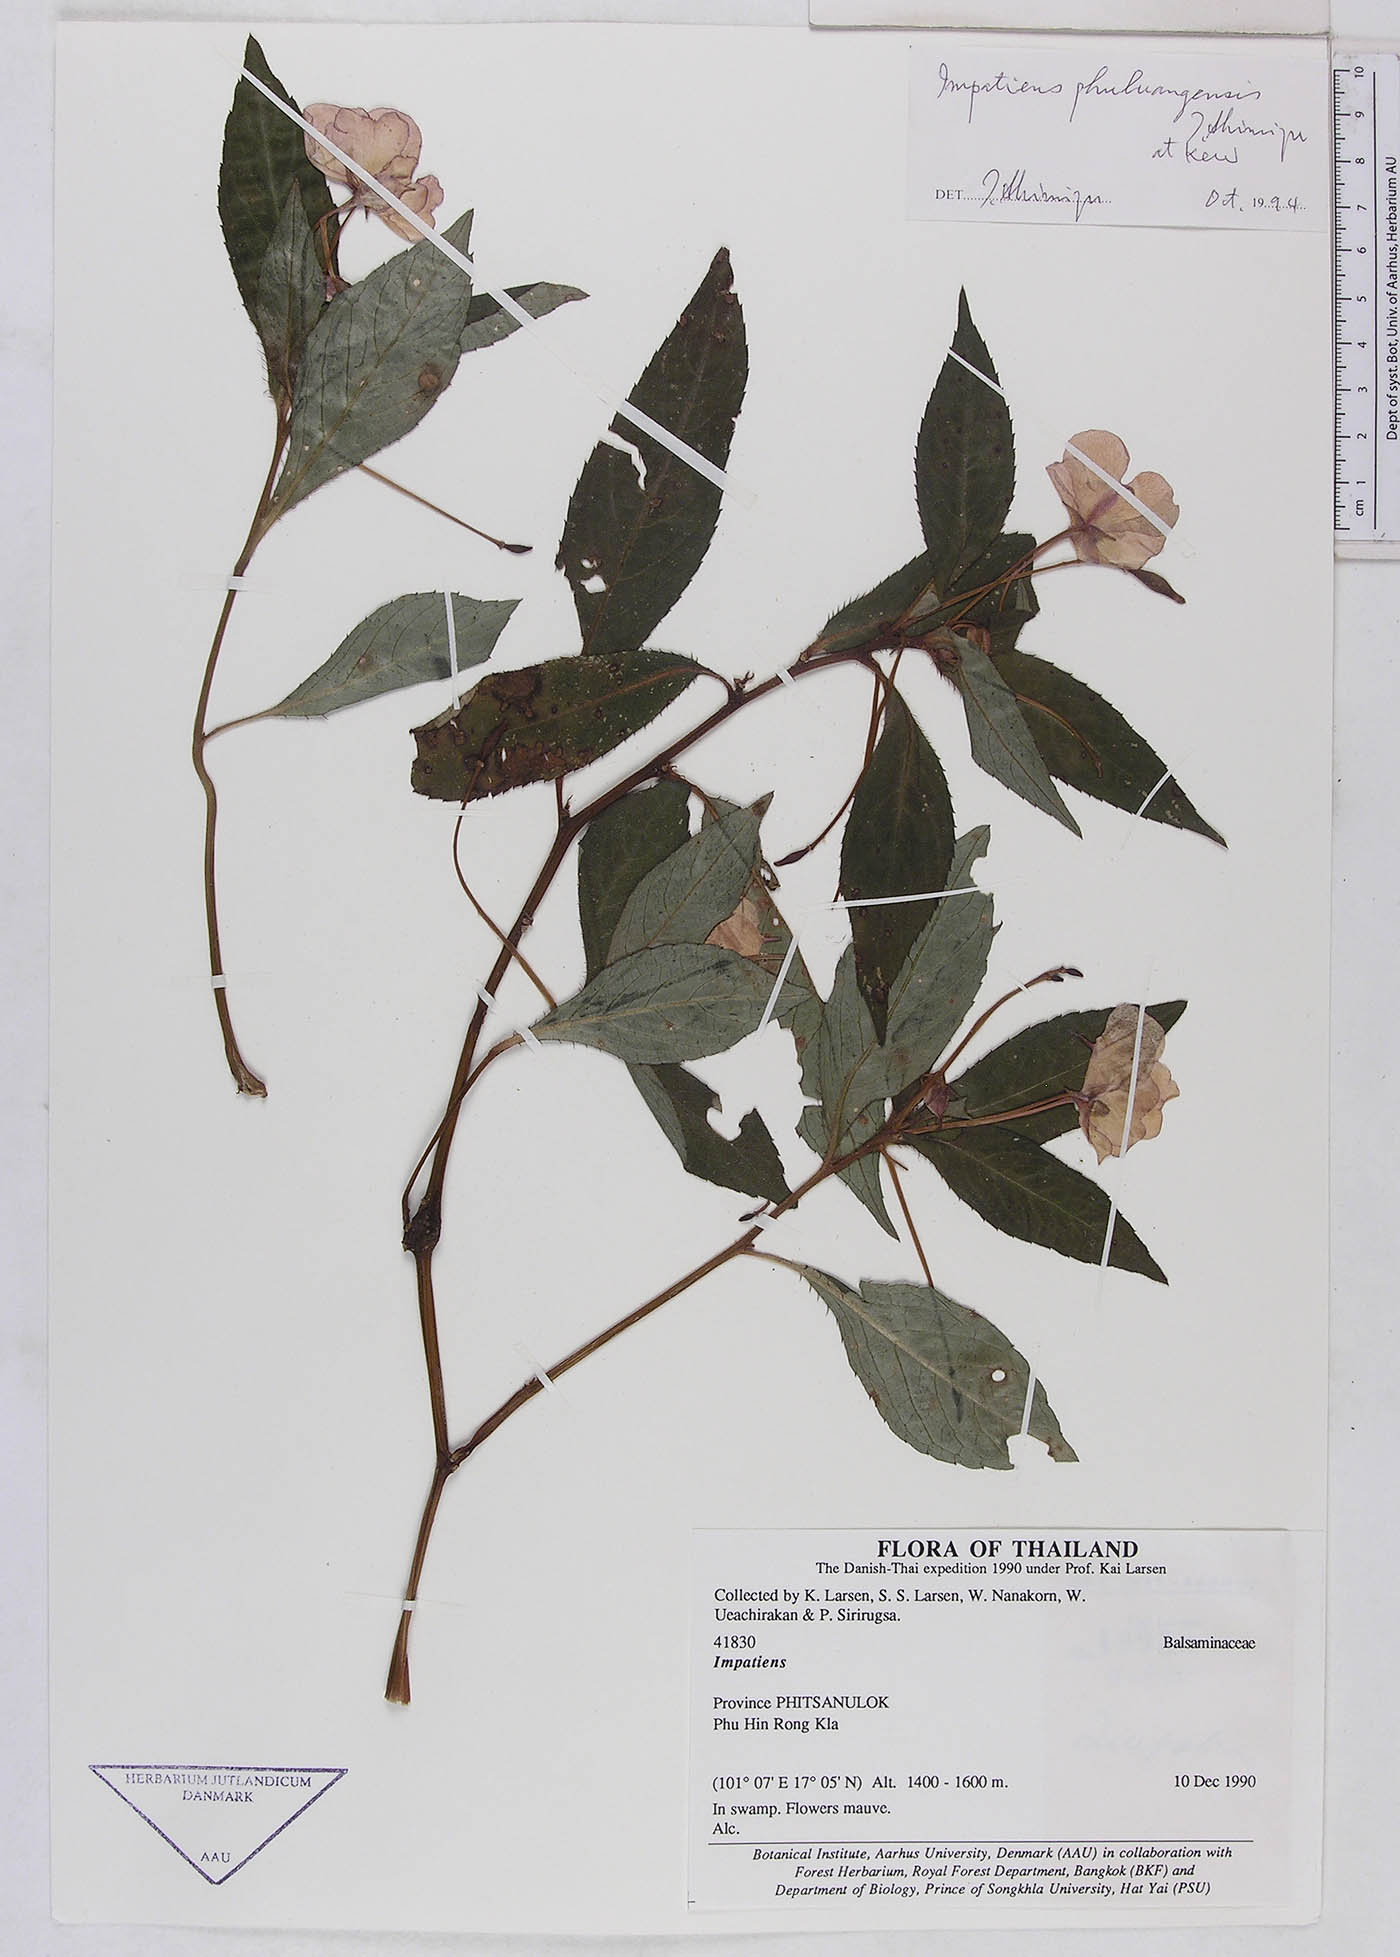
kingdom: Plantae
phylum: Tracheophyta
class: Magnoliopsida
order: Ericales
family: Balsaminaceae
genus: Impatiens
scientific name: Impatiens phuluangensis
